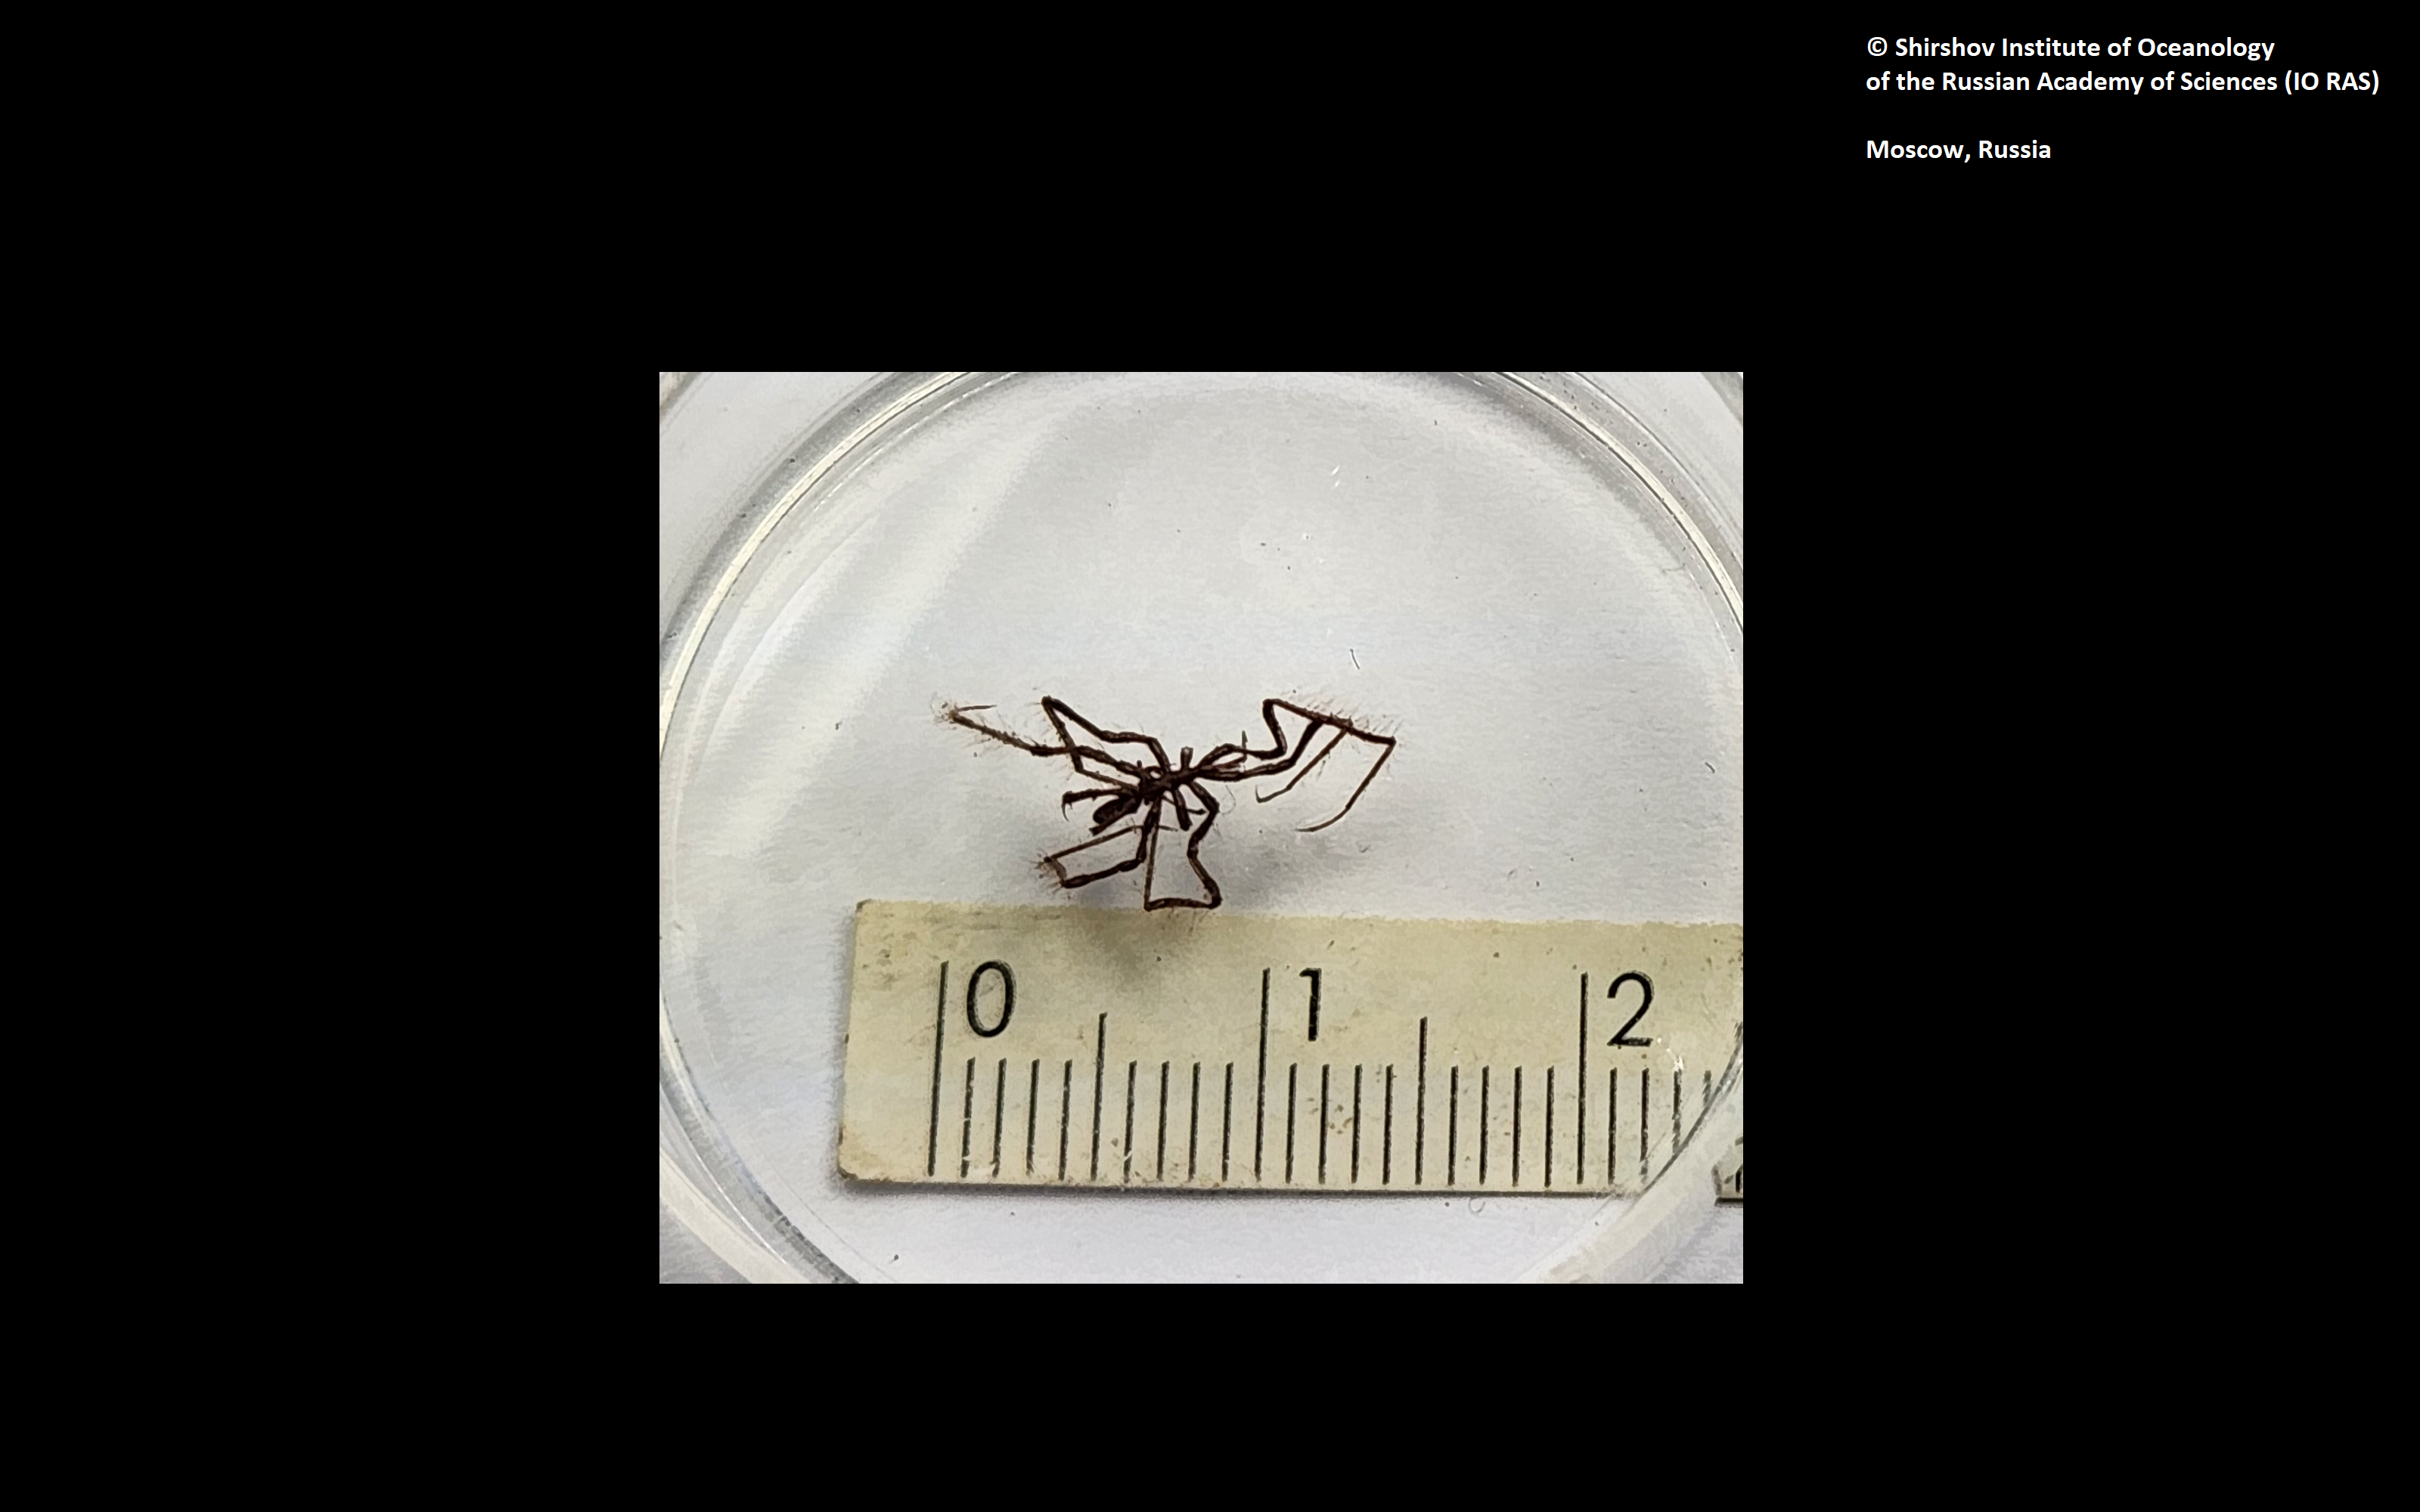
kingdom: Animalia
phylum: Arthropoda
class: Pycnogonida
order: Pantopoda
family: Nymphonidae
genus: Nymphon
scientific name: Nymphon heterodentum
